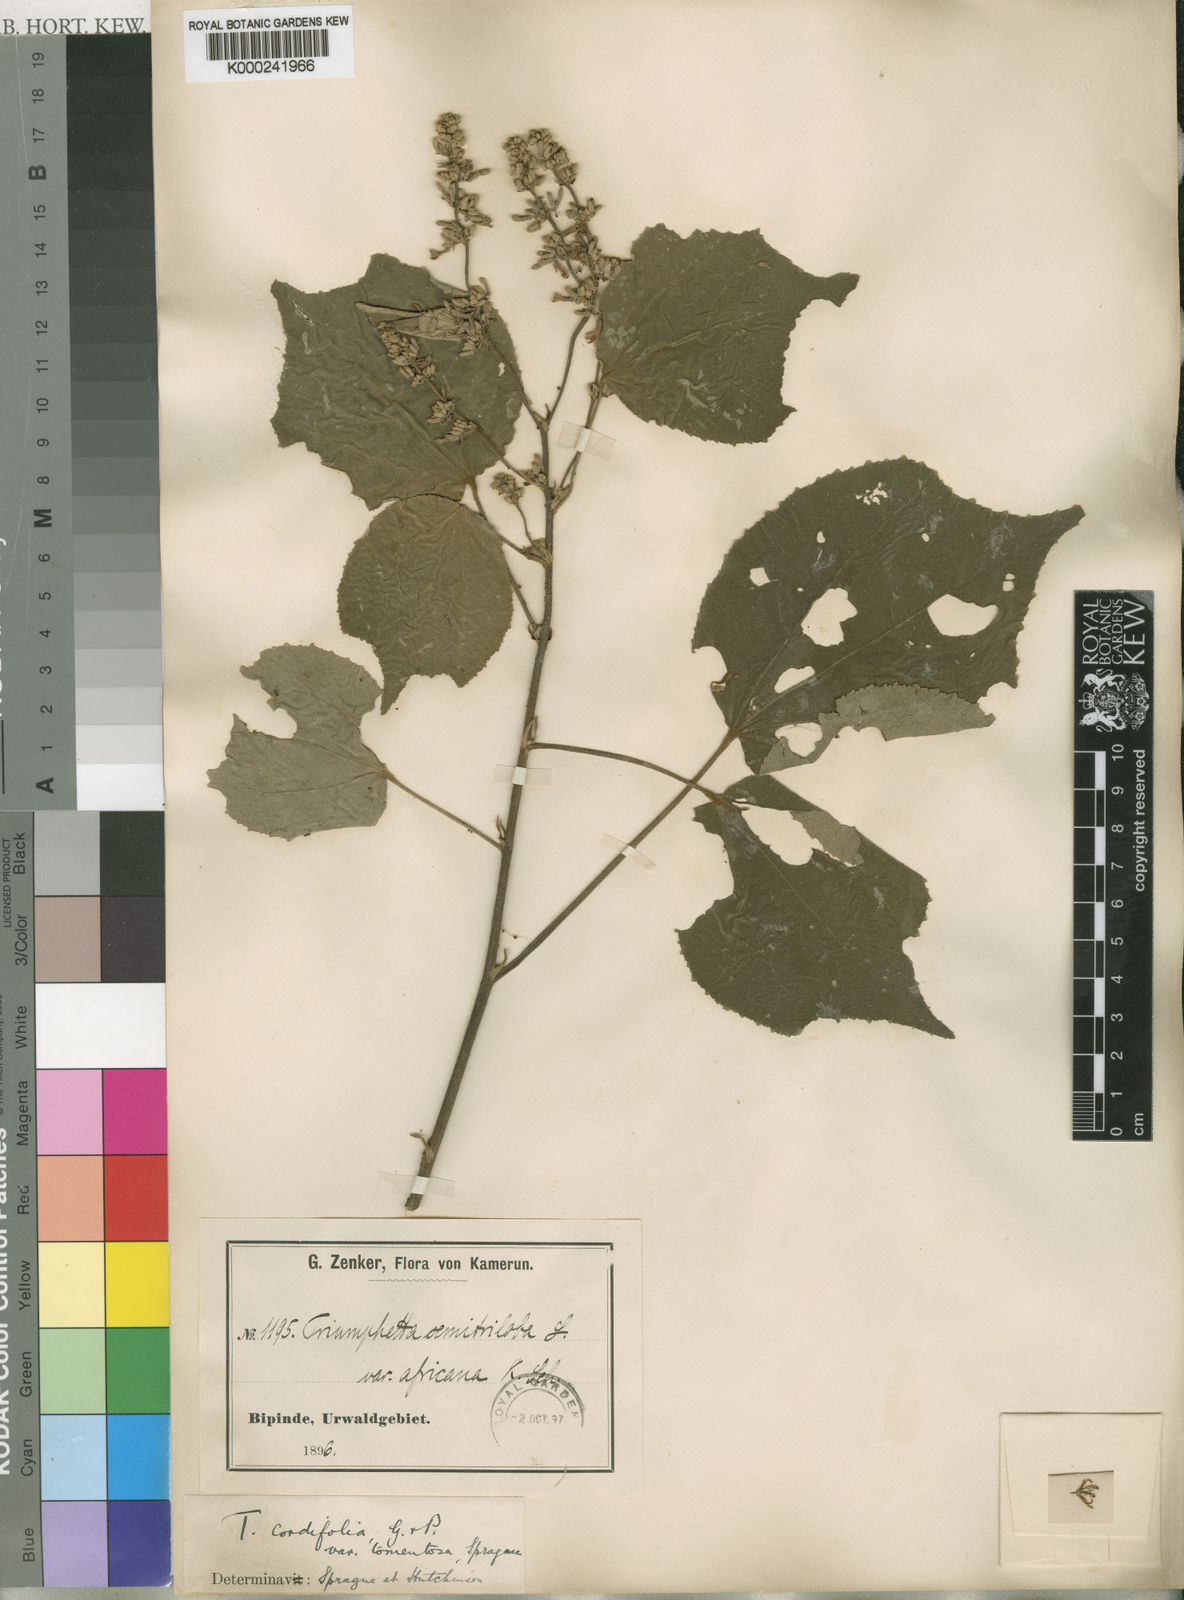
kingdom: Plantae
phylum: Tracheophyta
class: Magnoliopsida
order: Malvales
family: Malvaceae
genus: Triumfetta
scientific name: Triumfetta
